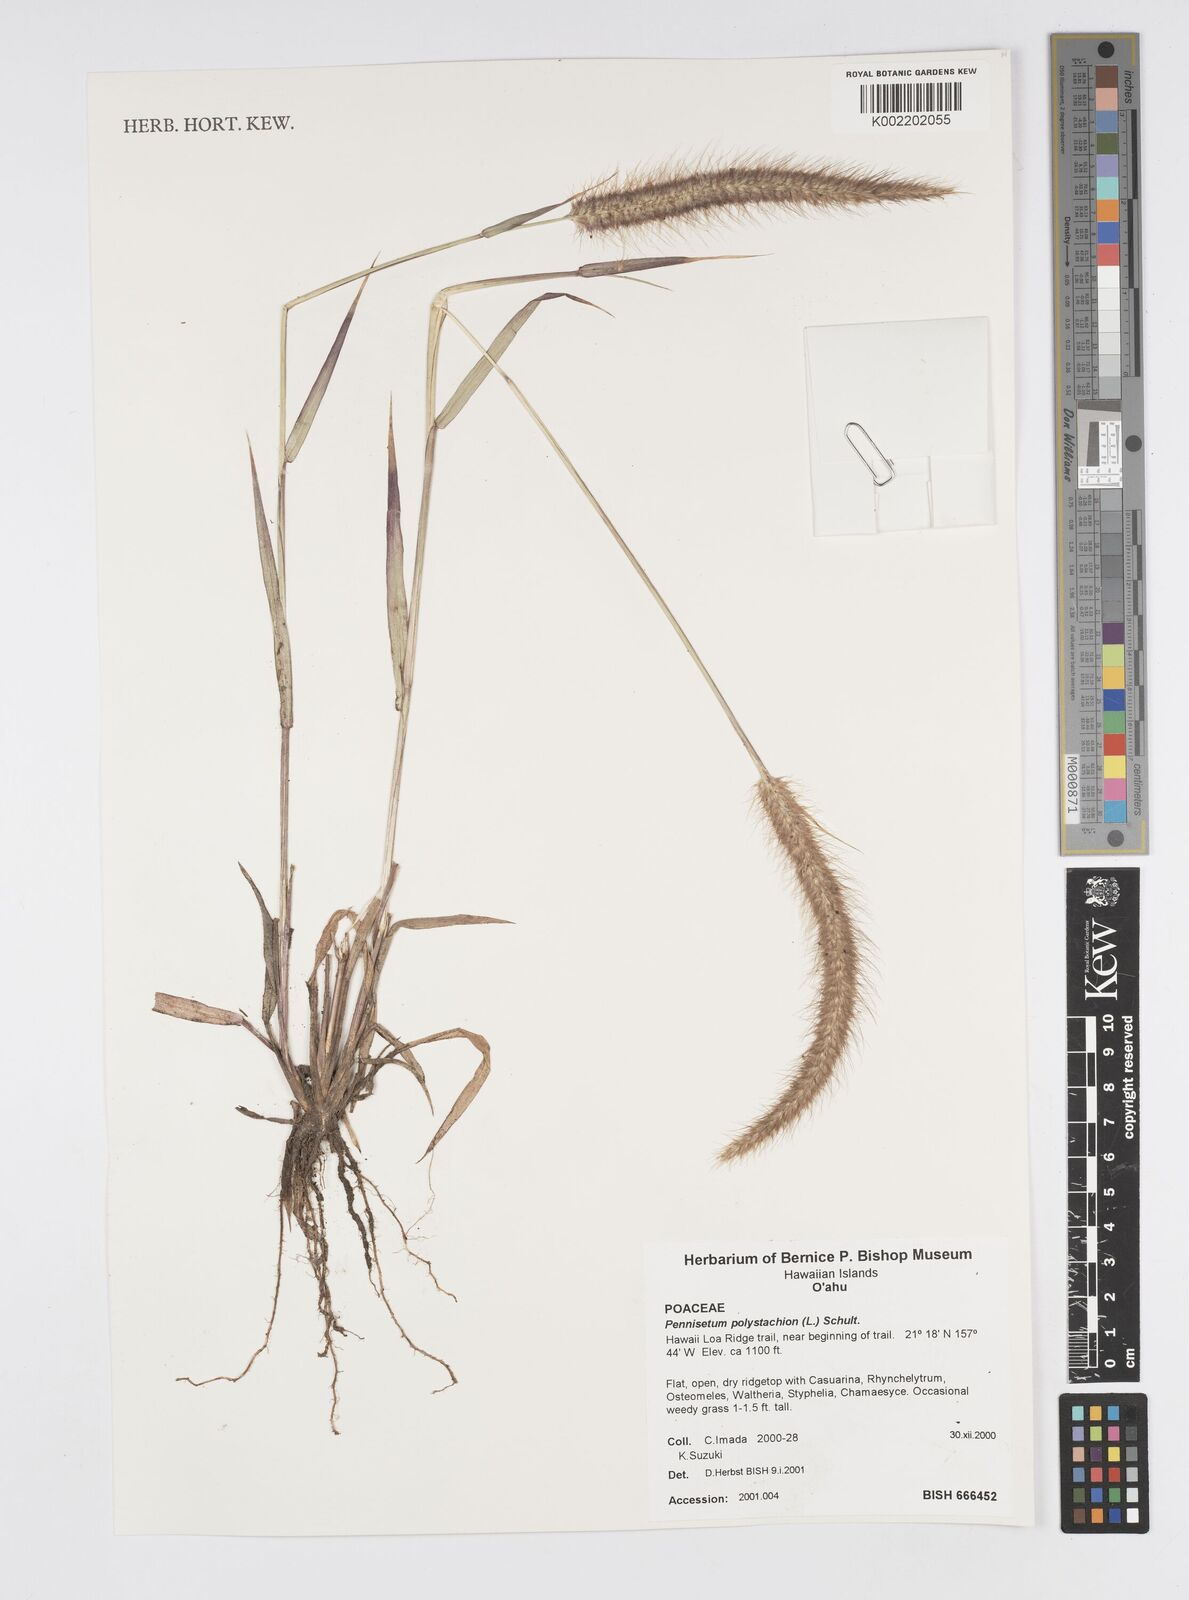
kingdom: Plantae
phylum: Tracheophyta
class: Liliopsida
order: Poales
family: Poaceae
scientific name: Poaceae
